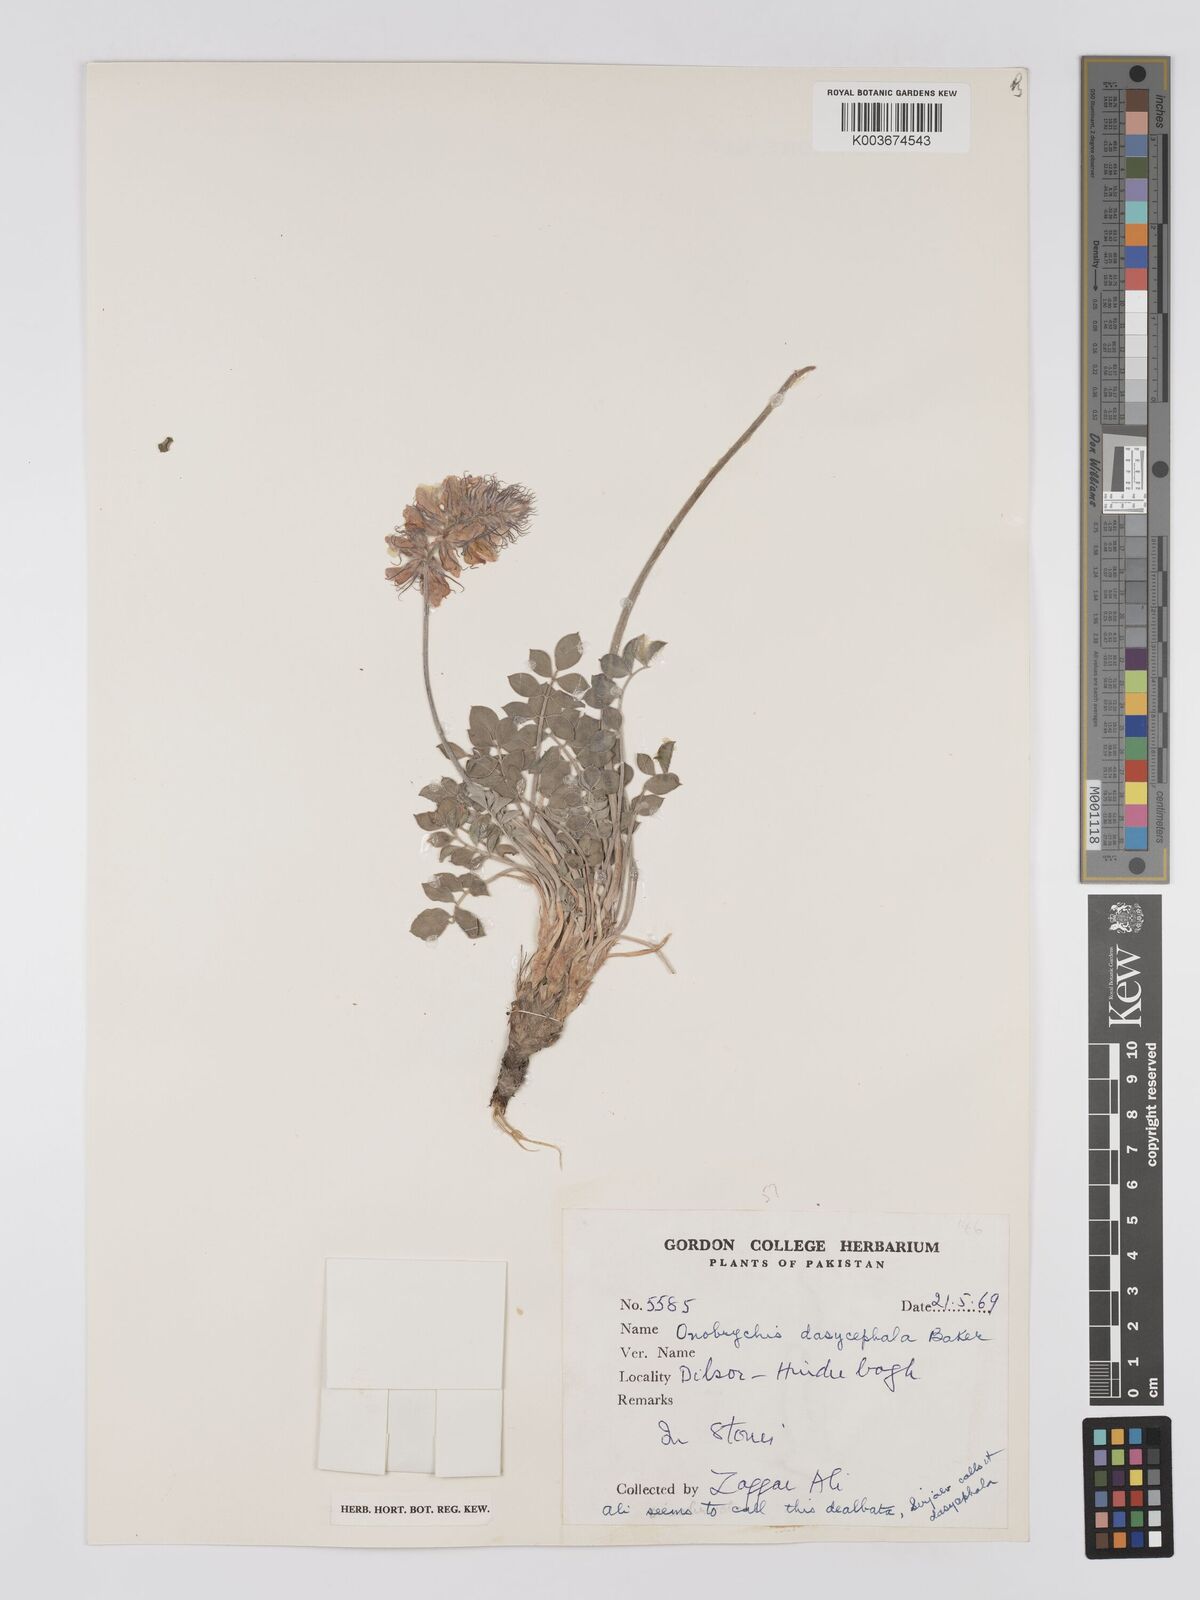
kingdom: Plantae
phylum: Tracheophyta
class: Magnoliopsida
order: Fabales
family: Fabaceae
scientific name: Fabaceae
